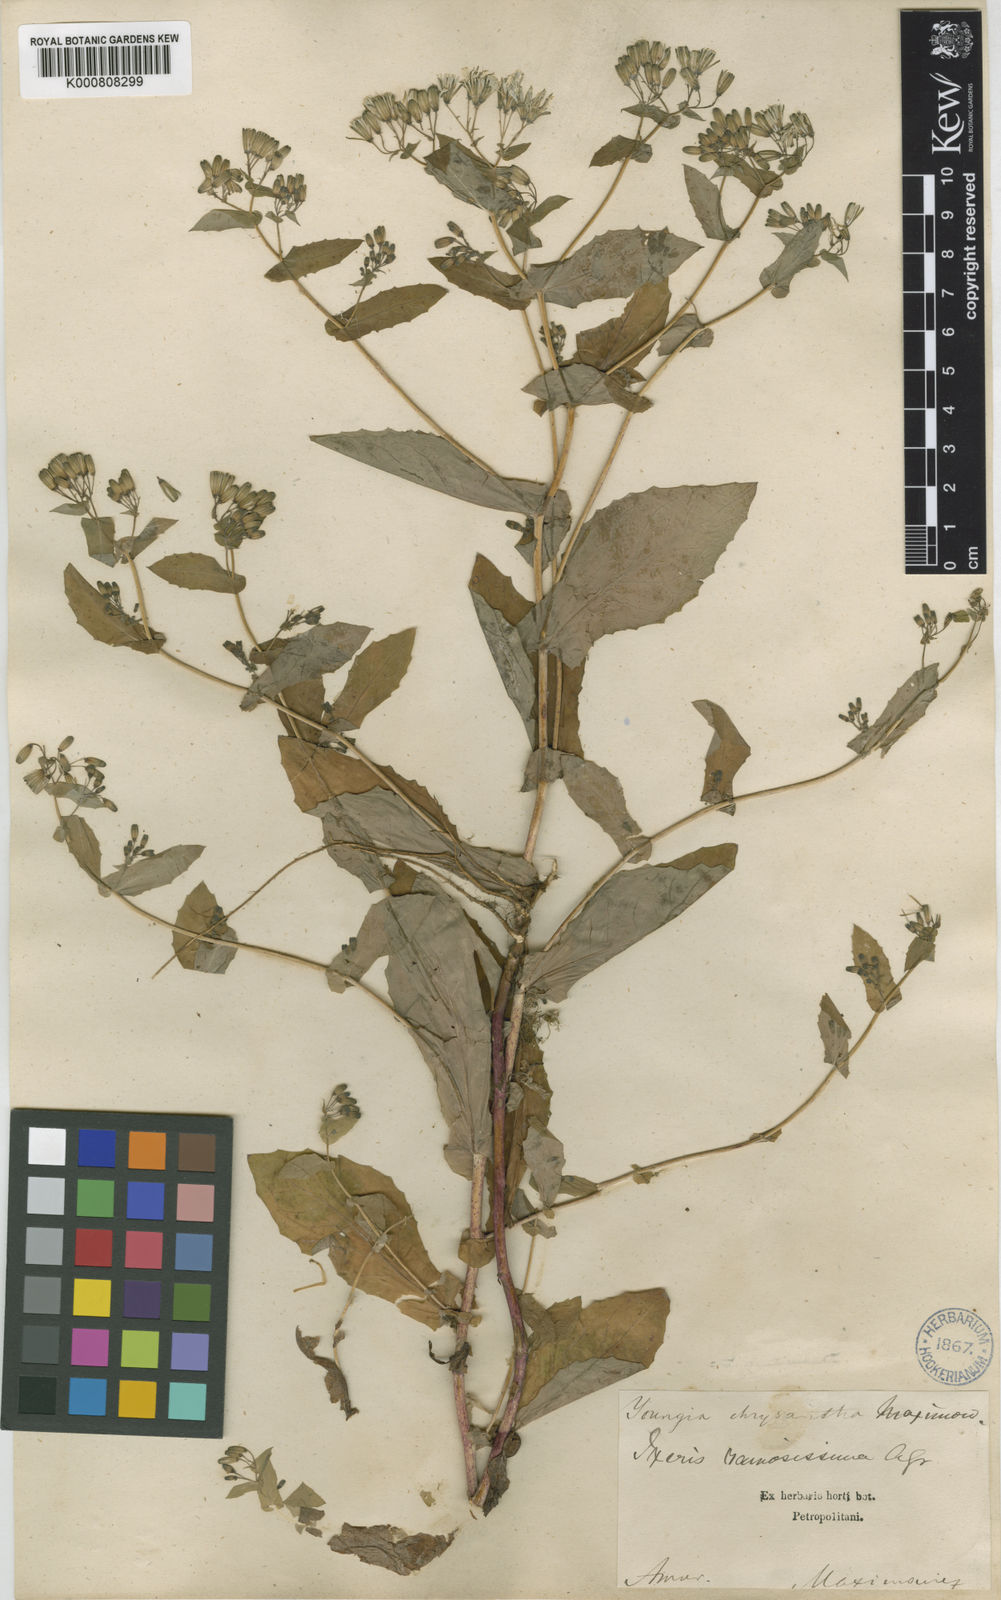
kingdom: Plantae
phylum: Tracheophyta
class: Magnoliopsida
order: Asterales
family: Asteraceae
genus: Crepidiastrum
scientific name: Crepidiastrum denticulatum
